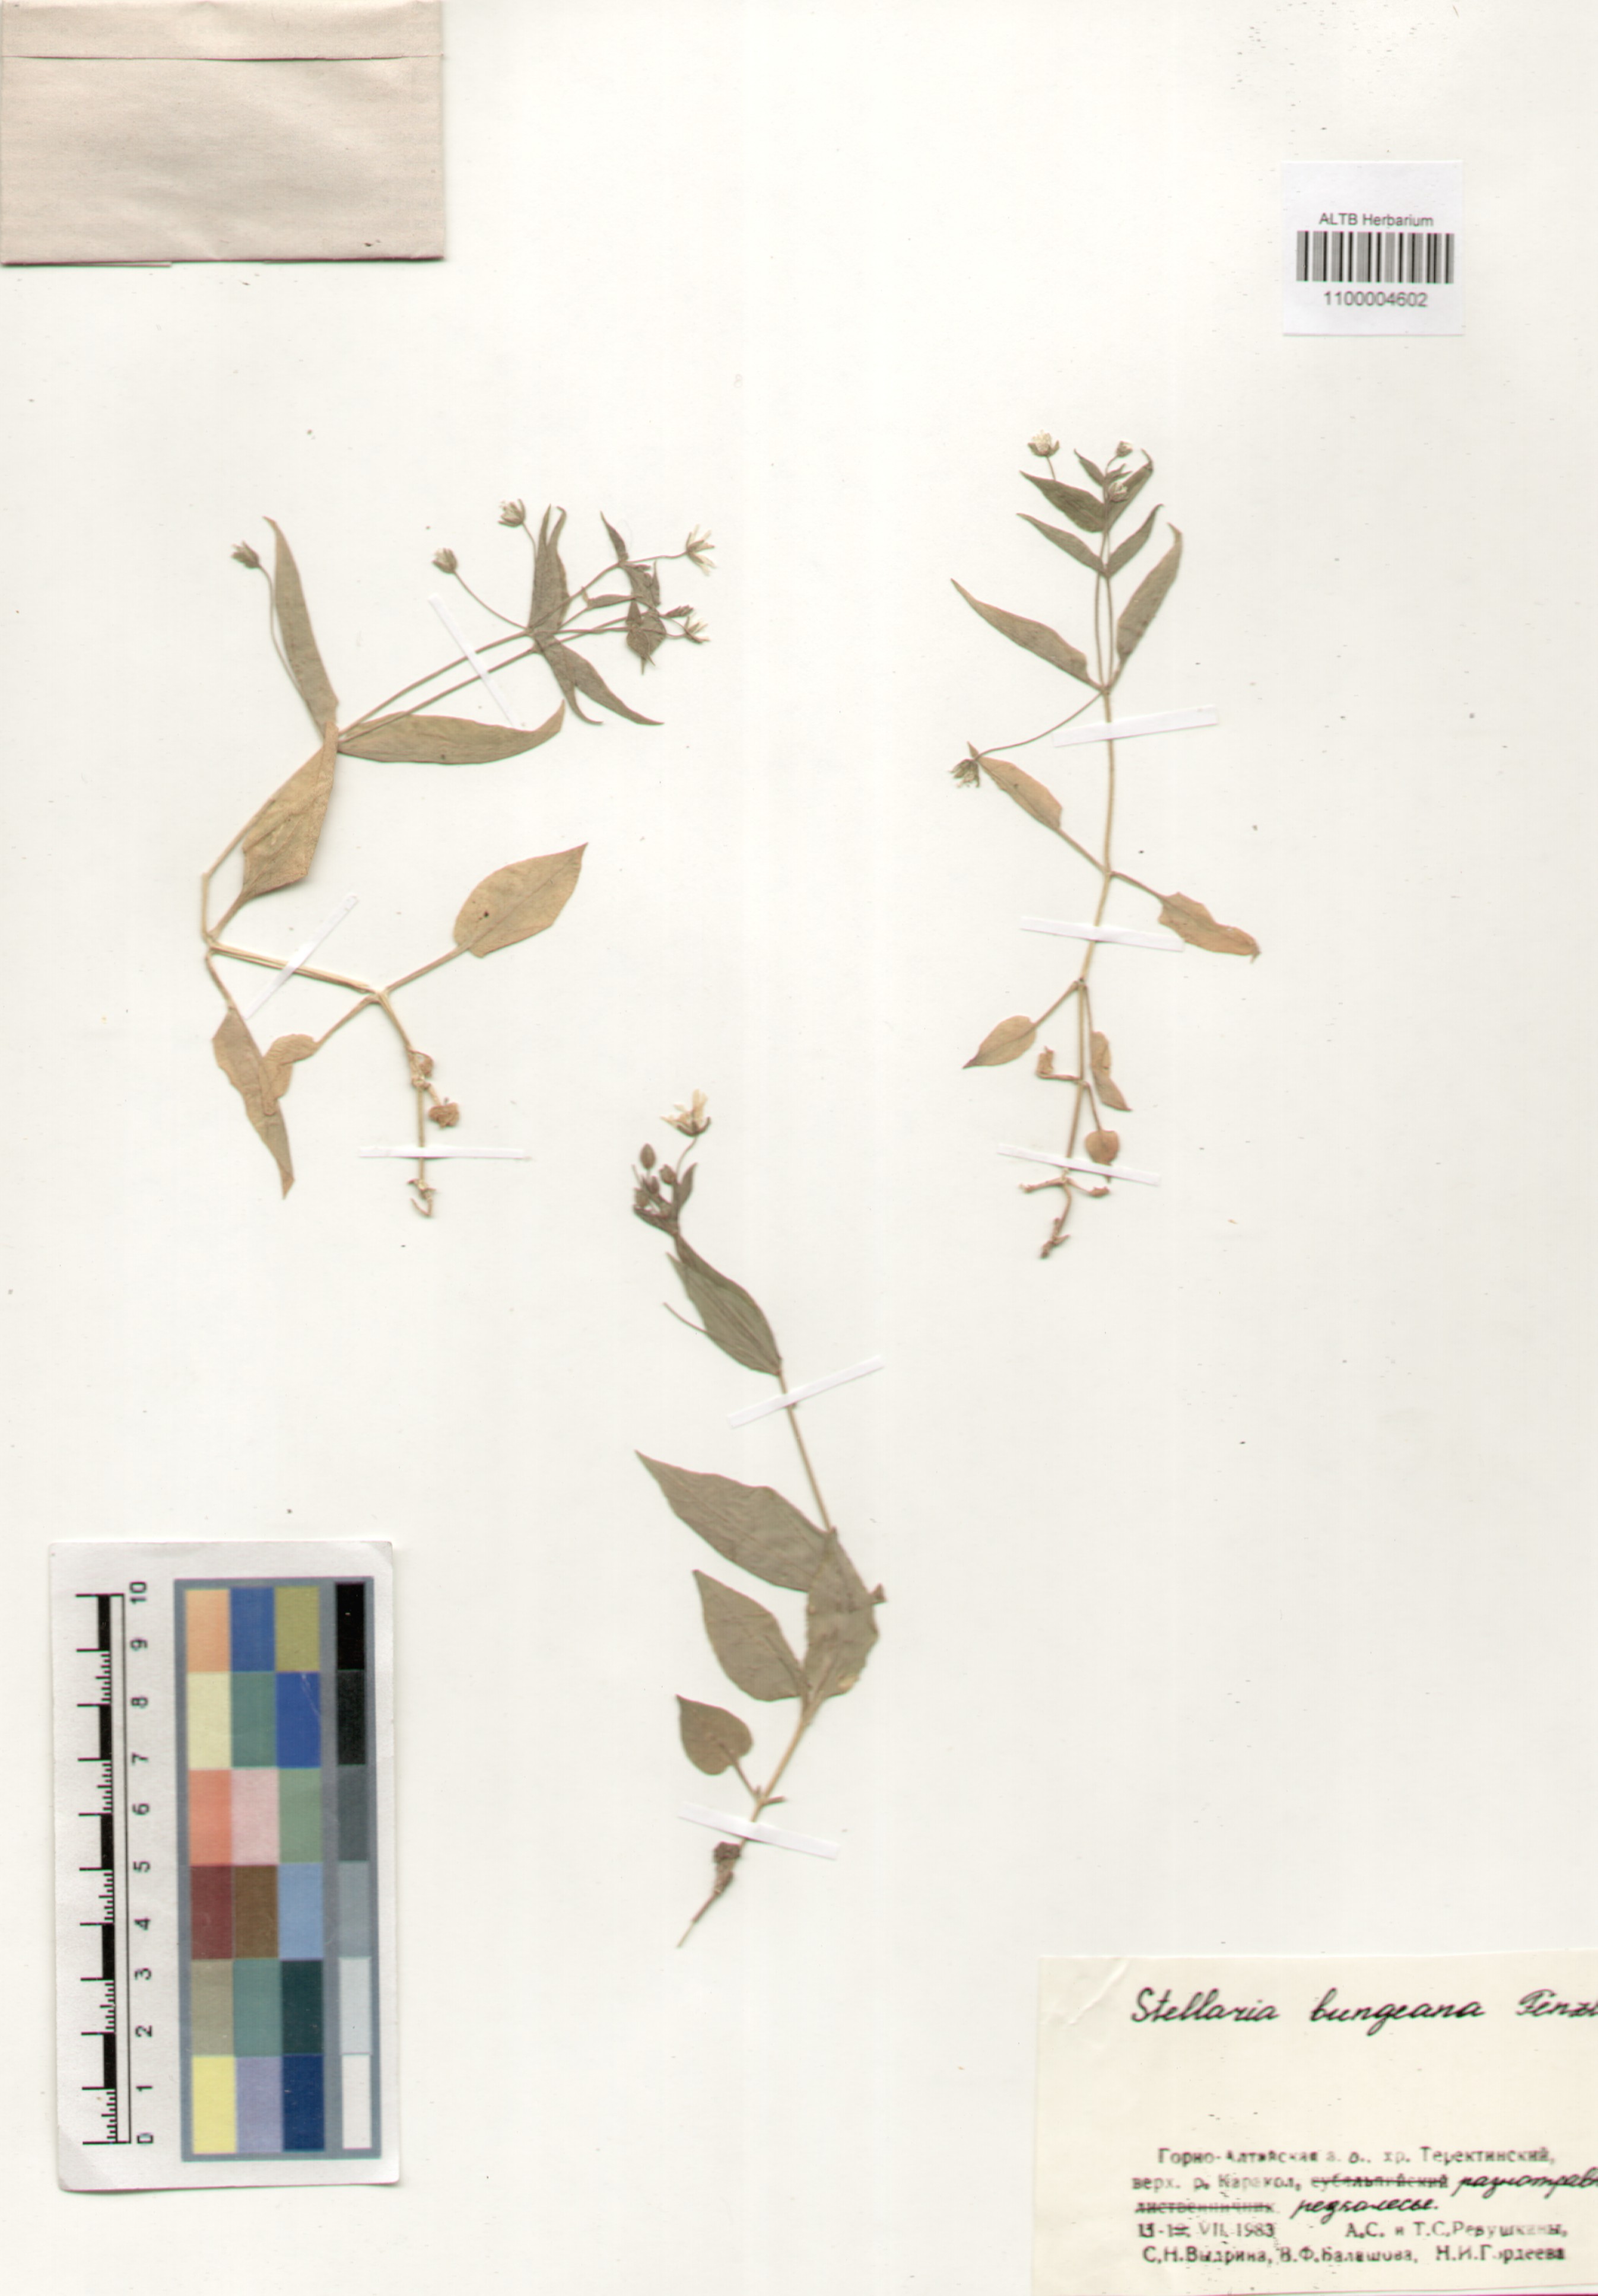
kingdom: Plantae
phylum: Tracheophyta
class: Magnoliopsida
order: Caryophyllales
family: Caryophyllaceae
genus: Stellaria
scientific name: Stellaria bungeana
